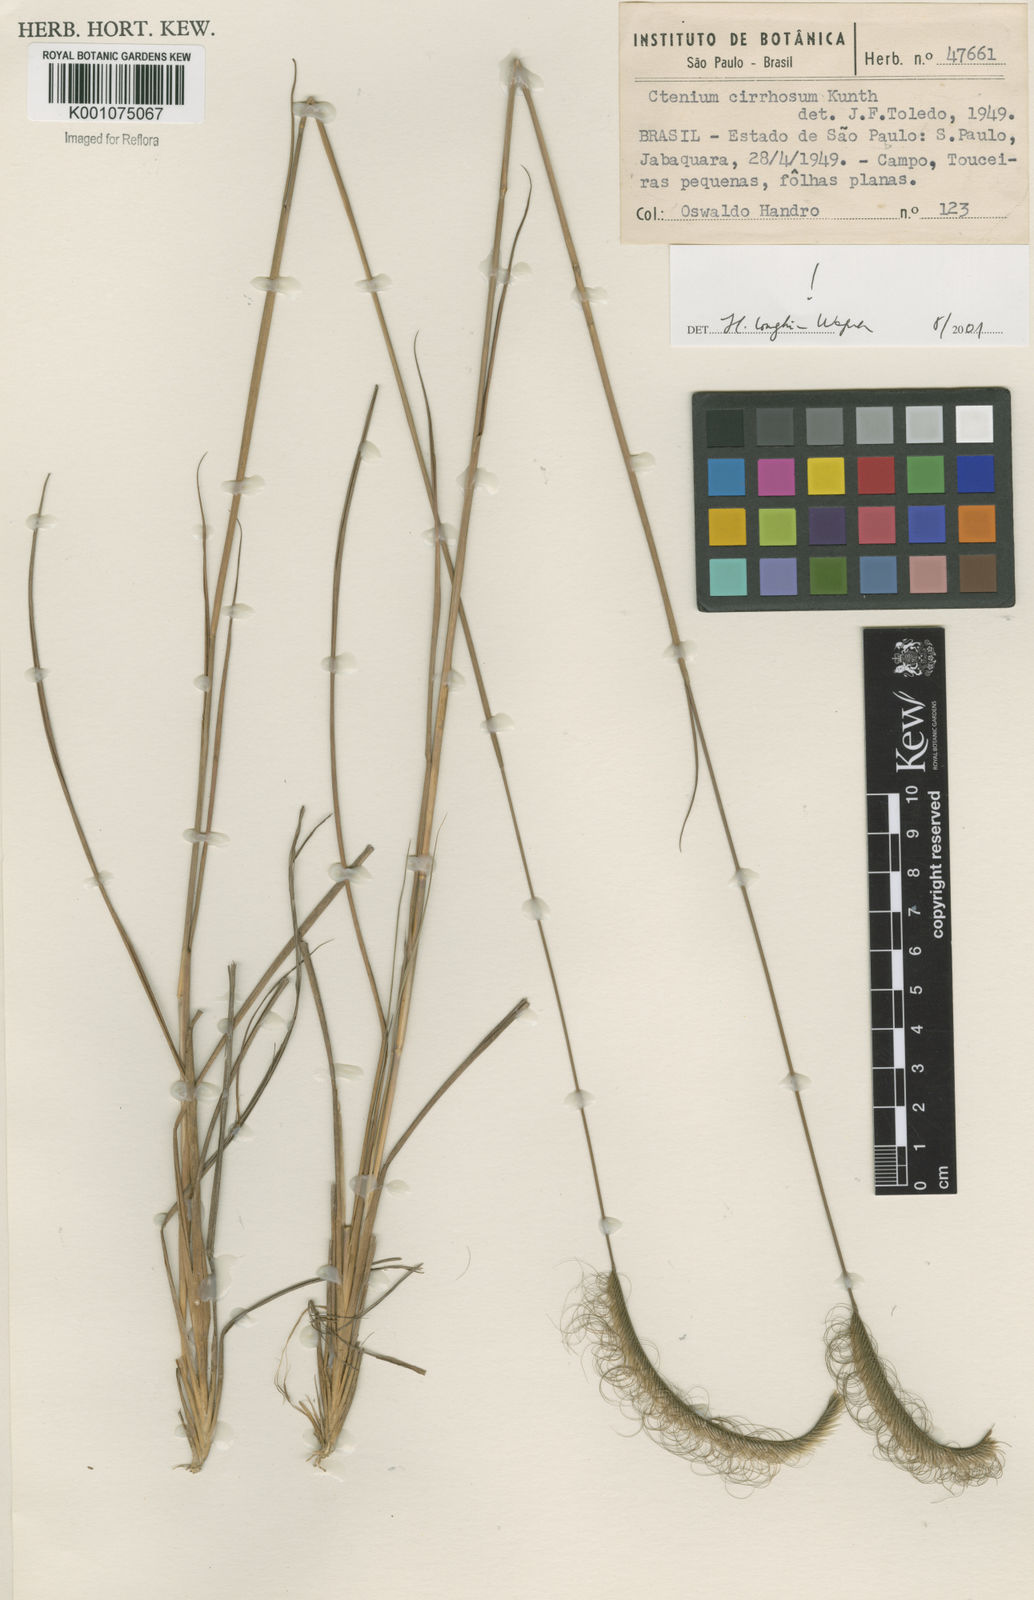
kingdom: Plantae
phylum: Tracheophyta
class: Liliopsida
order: Poales
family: Poaceae
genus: Ctenium
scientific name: Ctenium cirrhosum
